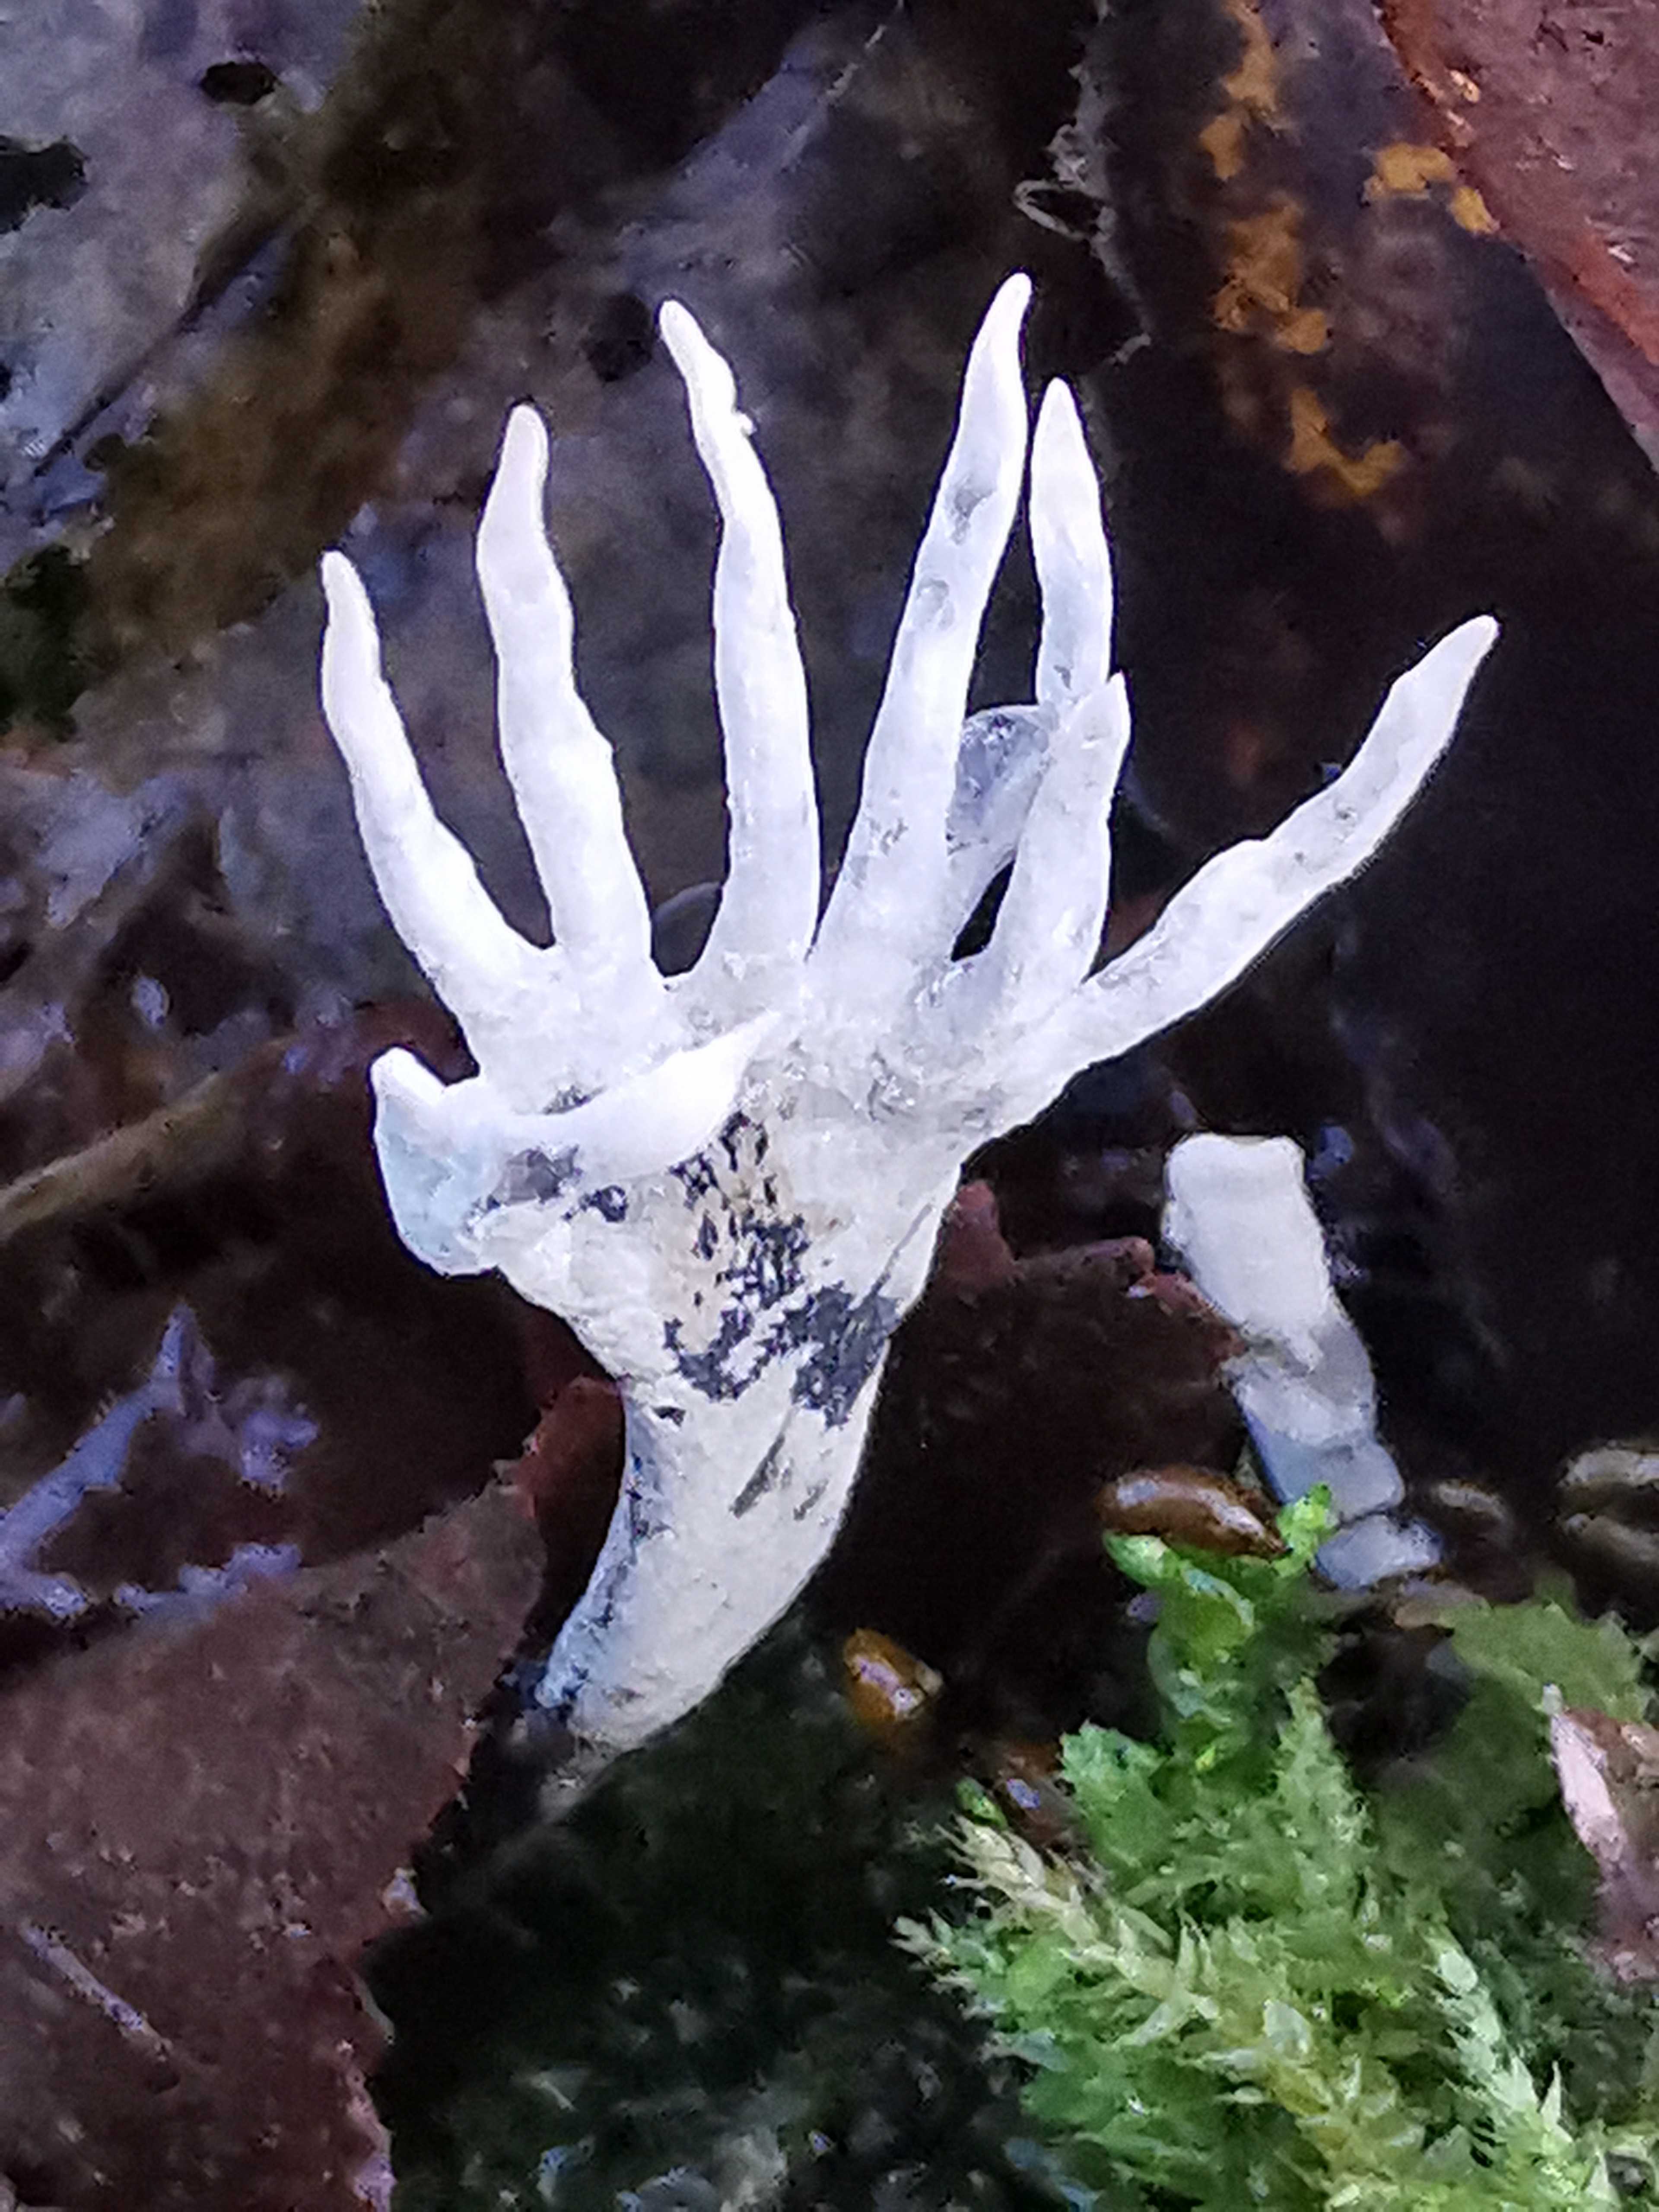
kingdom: Fungi
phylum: Ascomycota
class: Sordariomycetes
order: Xylariales
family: Xylariaceae
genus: Xylaria
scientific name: Xylaria hypoxylon
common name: grenet stødsvamp
